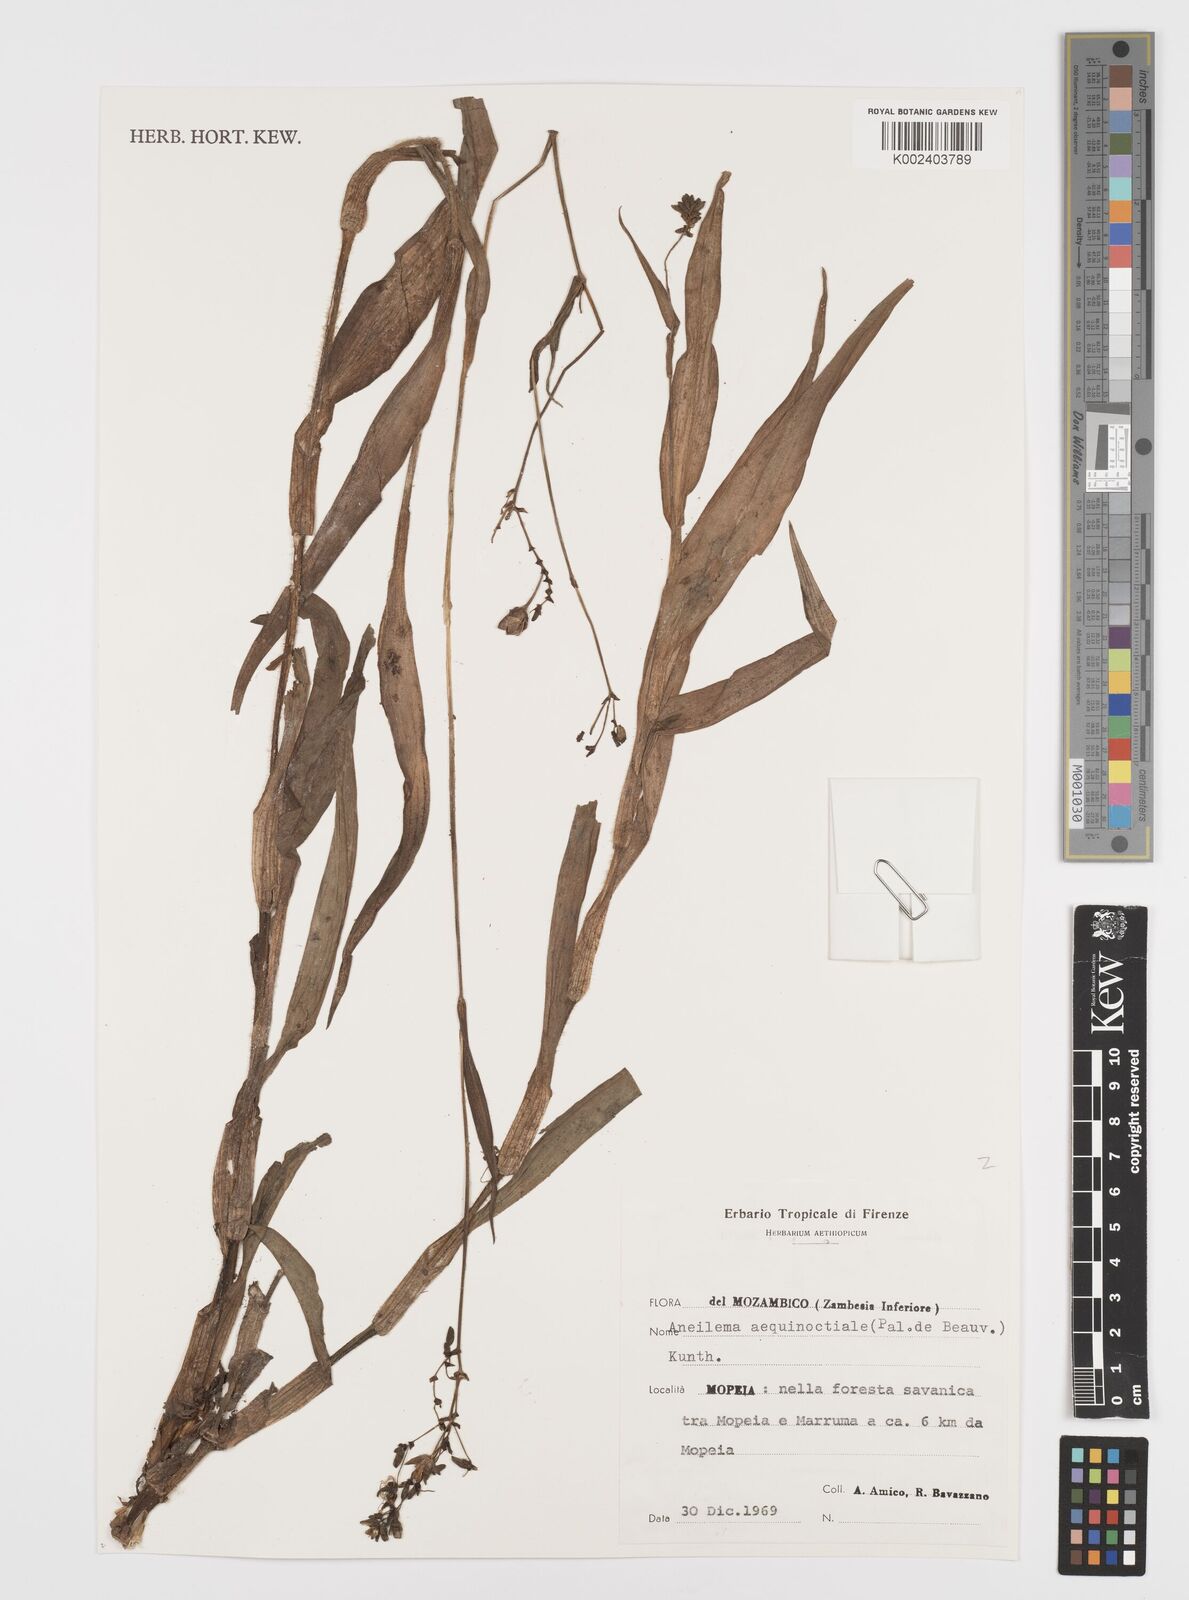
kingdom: Plantae
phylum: Tracheophyta
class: Liliopsida
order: Commelinales
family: Commelinaceae
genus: Aneilema
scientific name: Aneilema aequinoctiale
